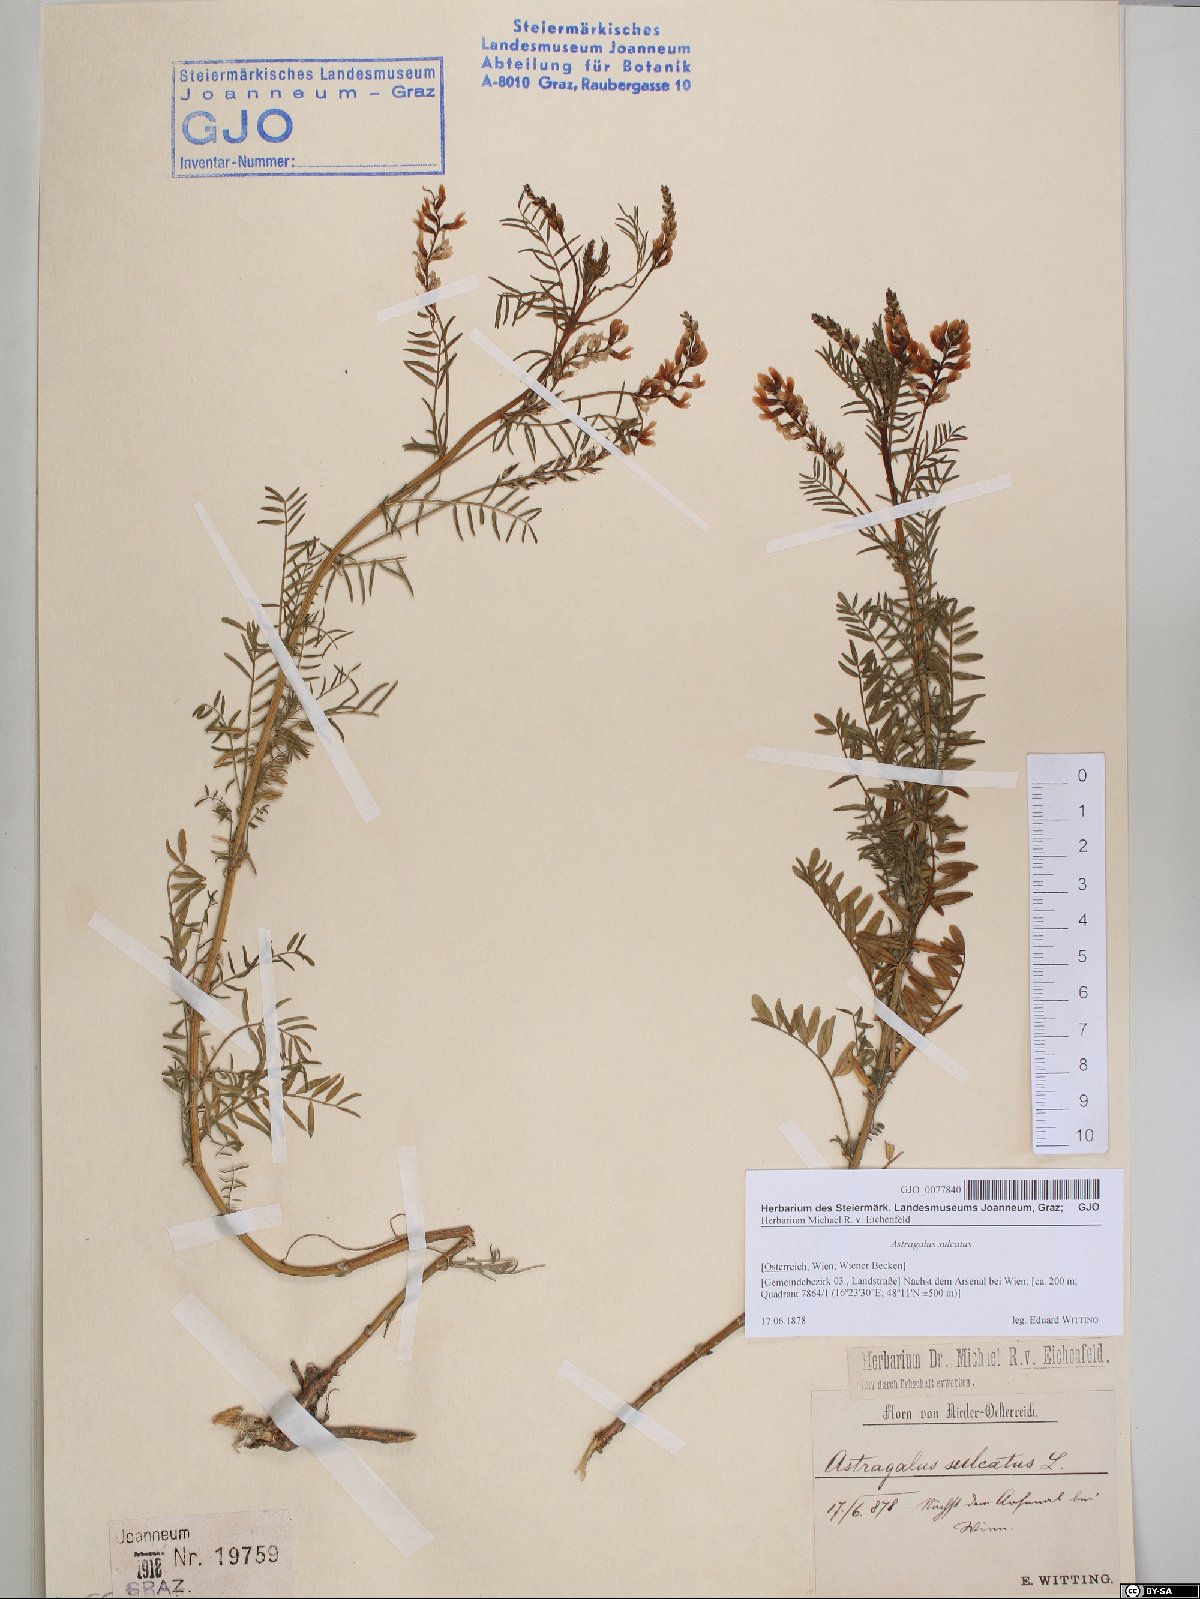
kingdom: Plantae
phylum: Tracheophyta
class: Magnoliopsida
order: Fabales
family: Fabaceae
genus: Astragalus
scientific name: Astragalus sulcatus
